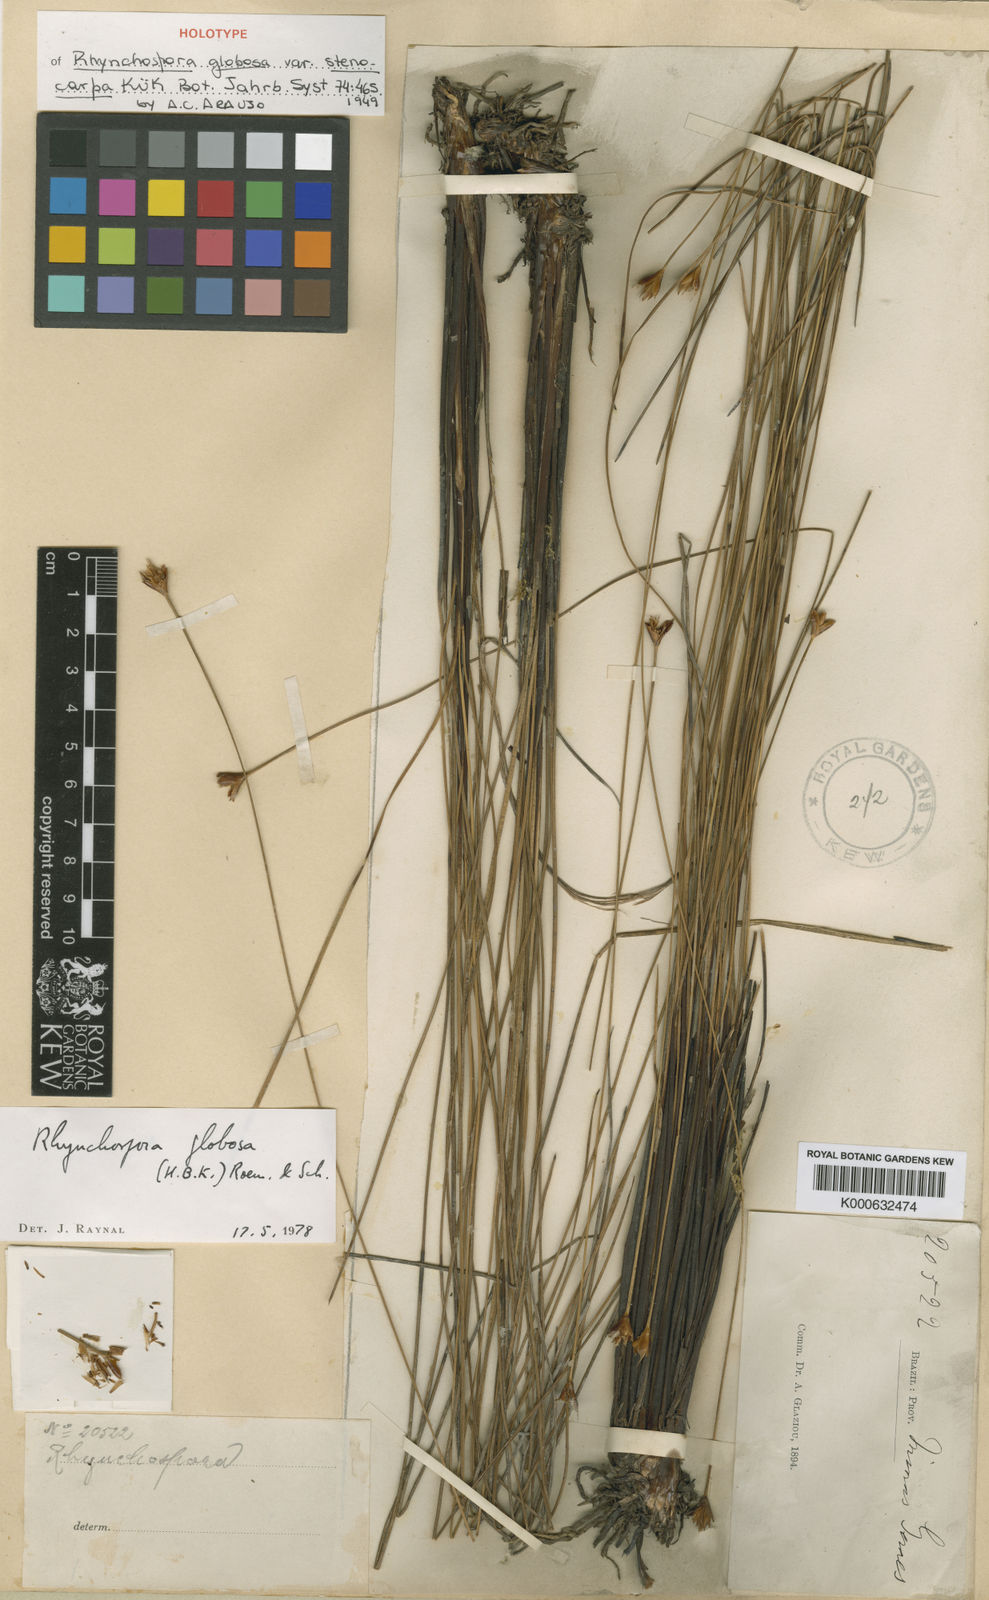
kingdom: Plantae
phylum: Tracheophyta
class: Liliopsida
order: Poales
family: Cyperaceae
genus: Rhynchospora
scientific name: Rhynchospora globosa
